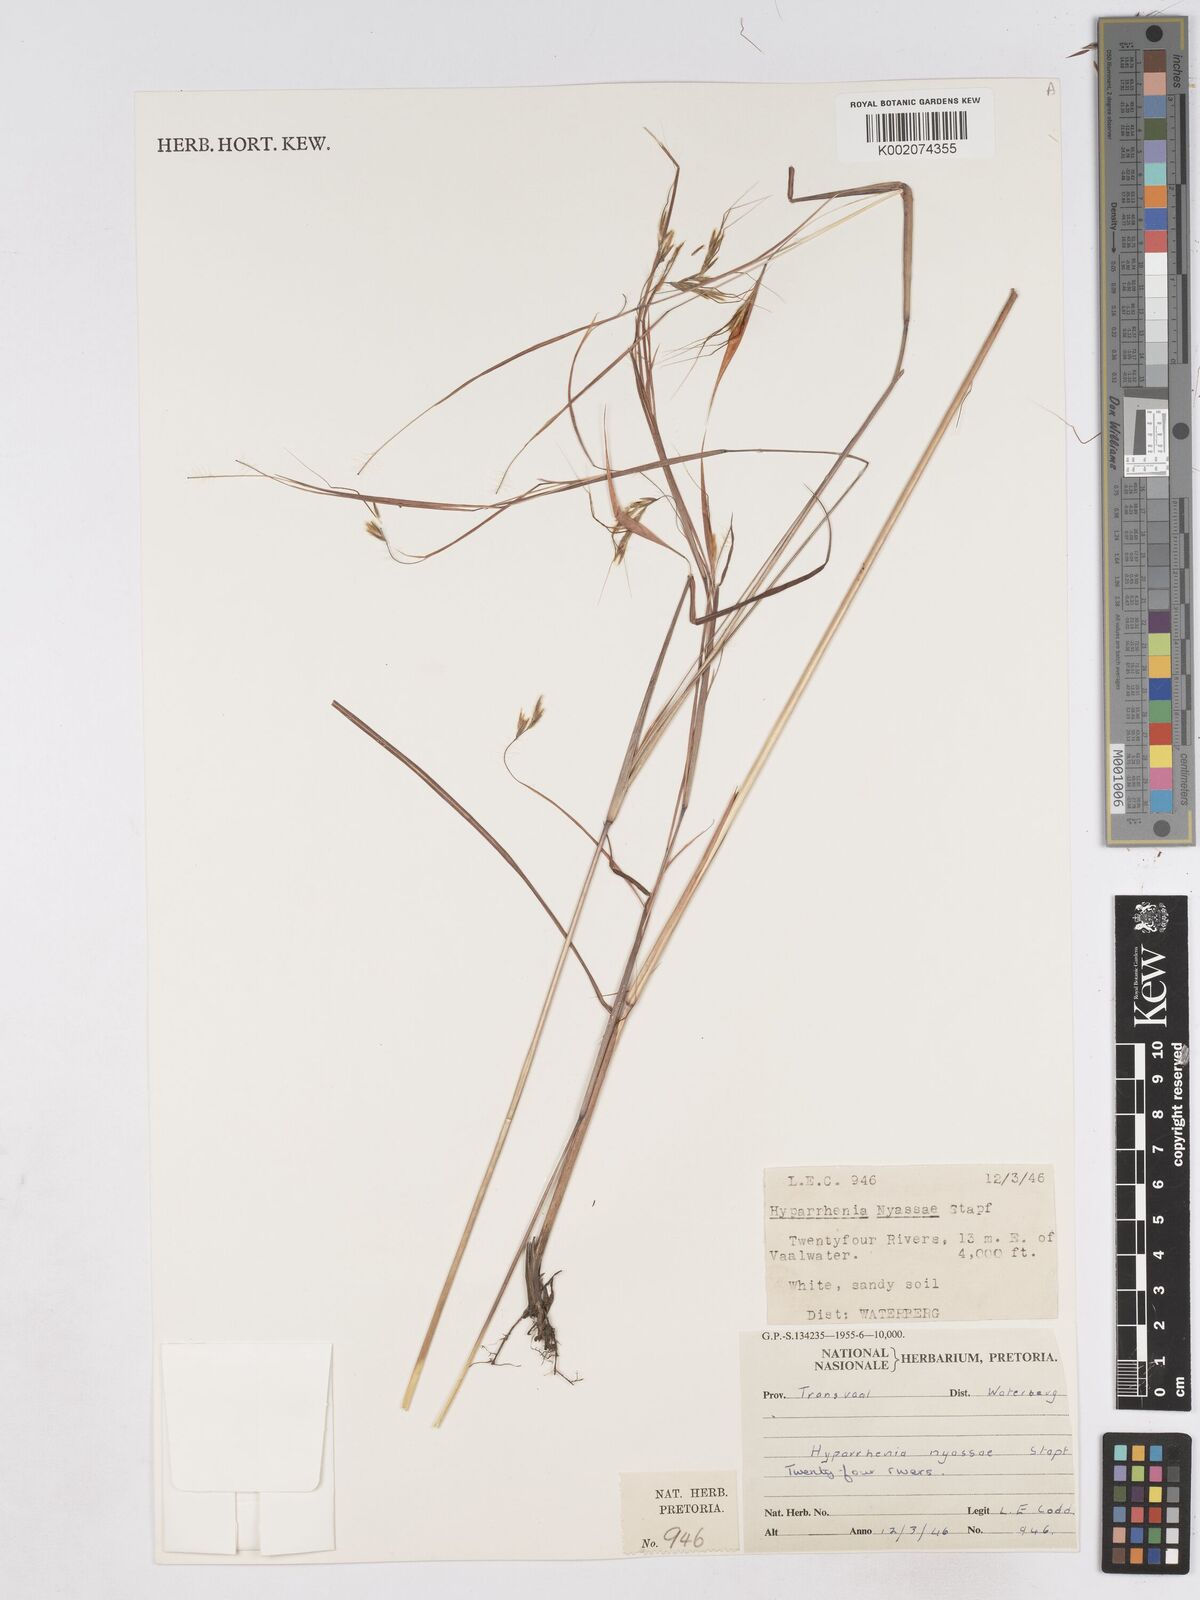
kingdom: Plantae
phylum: Tracheophyta
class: Liliopsida
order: Poales
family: Poaceae
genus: Hyparrhenia
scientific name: Hyparrhenia rufa
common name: Jaraguagrass
